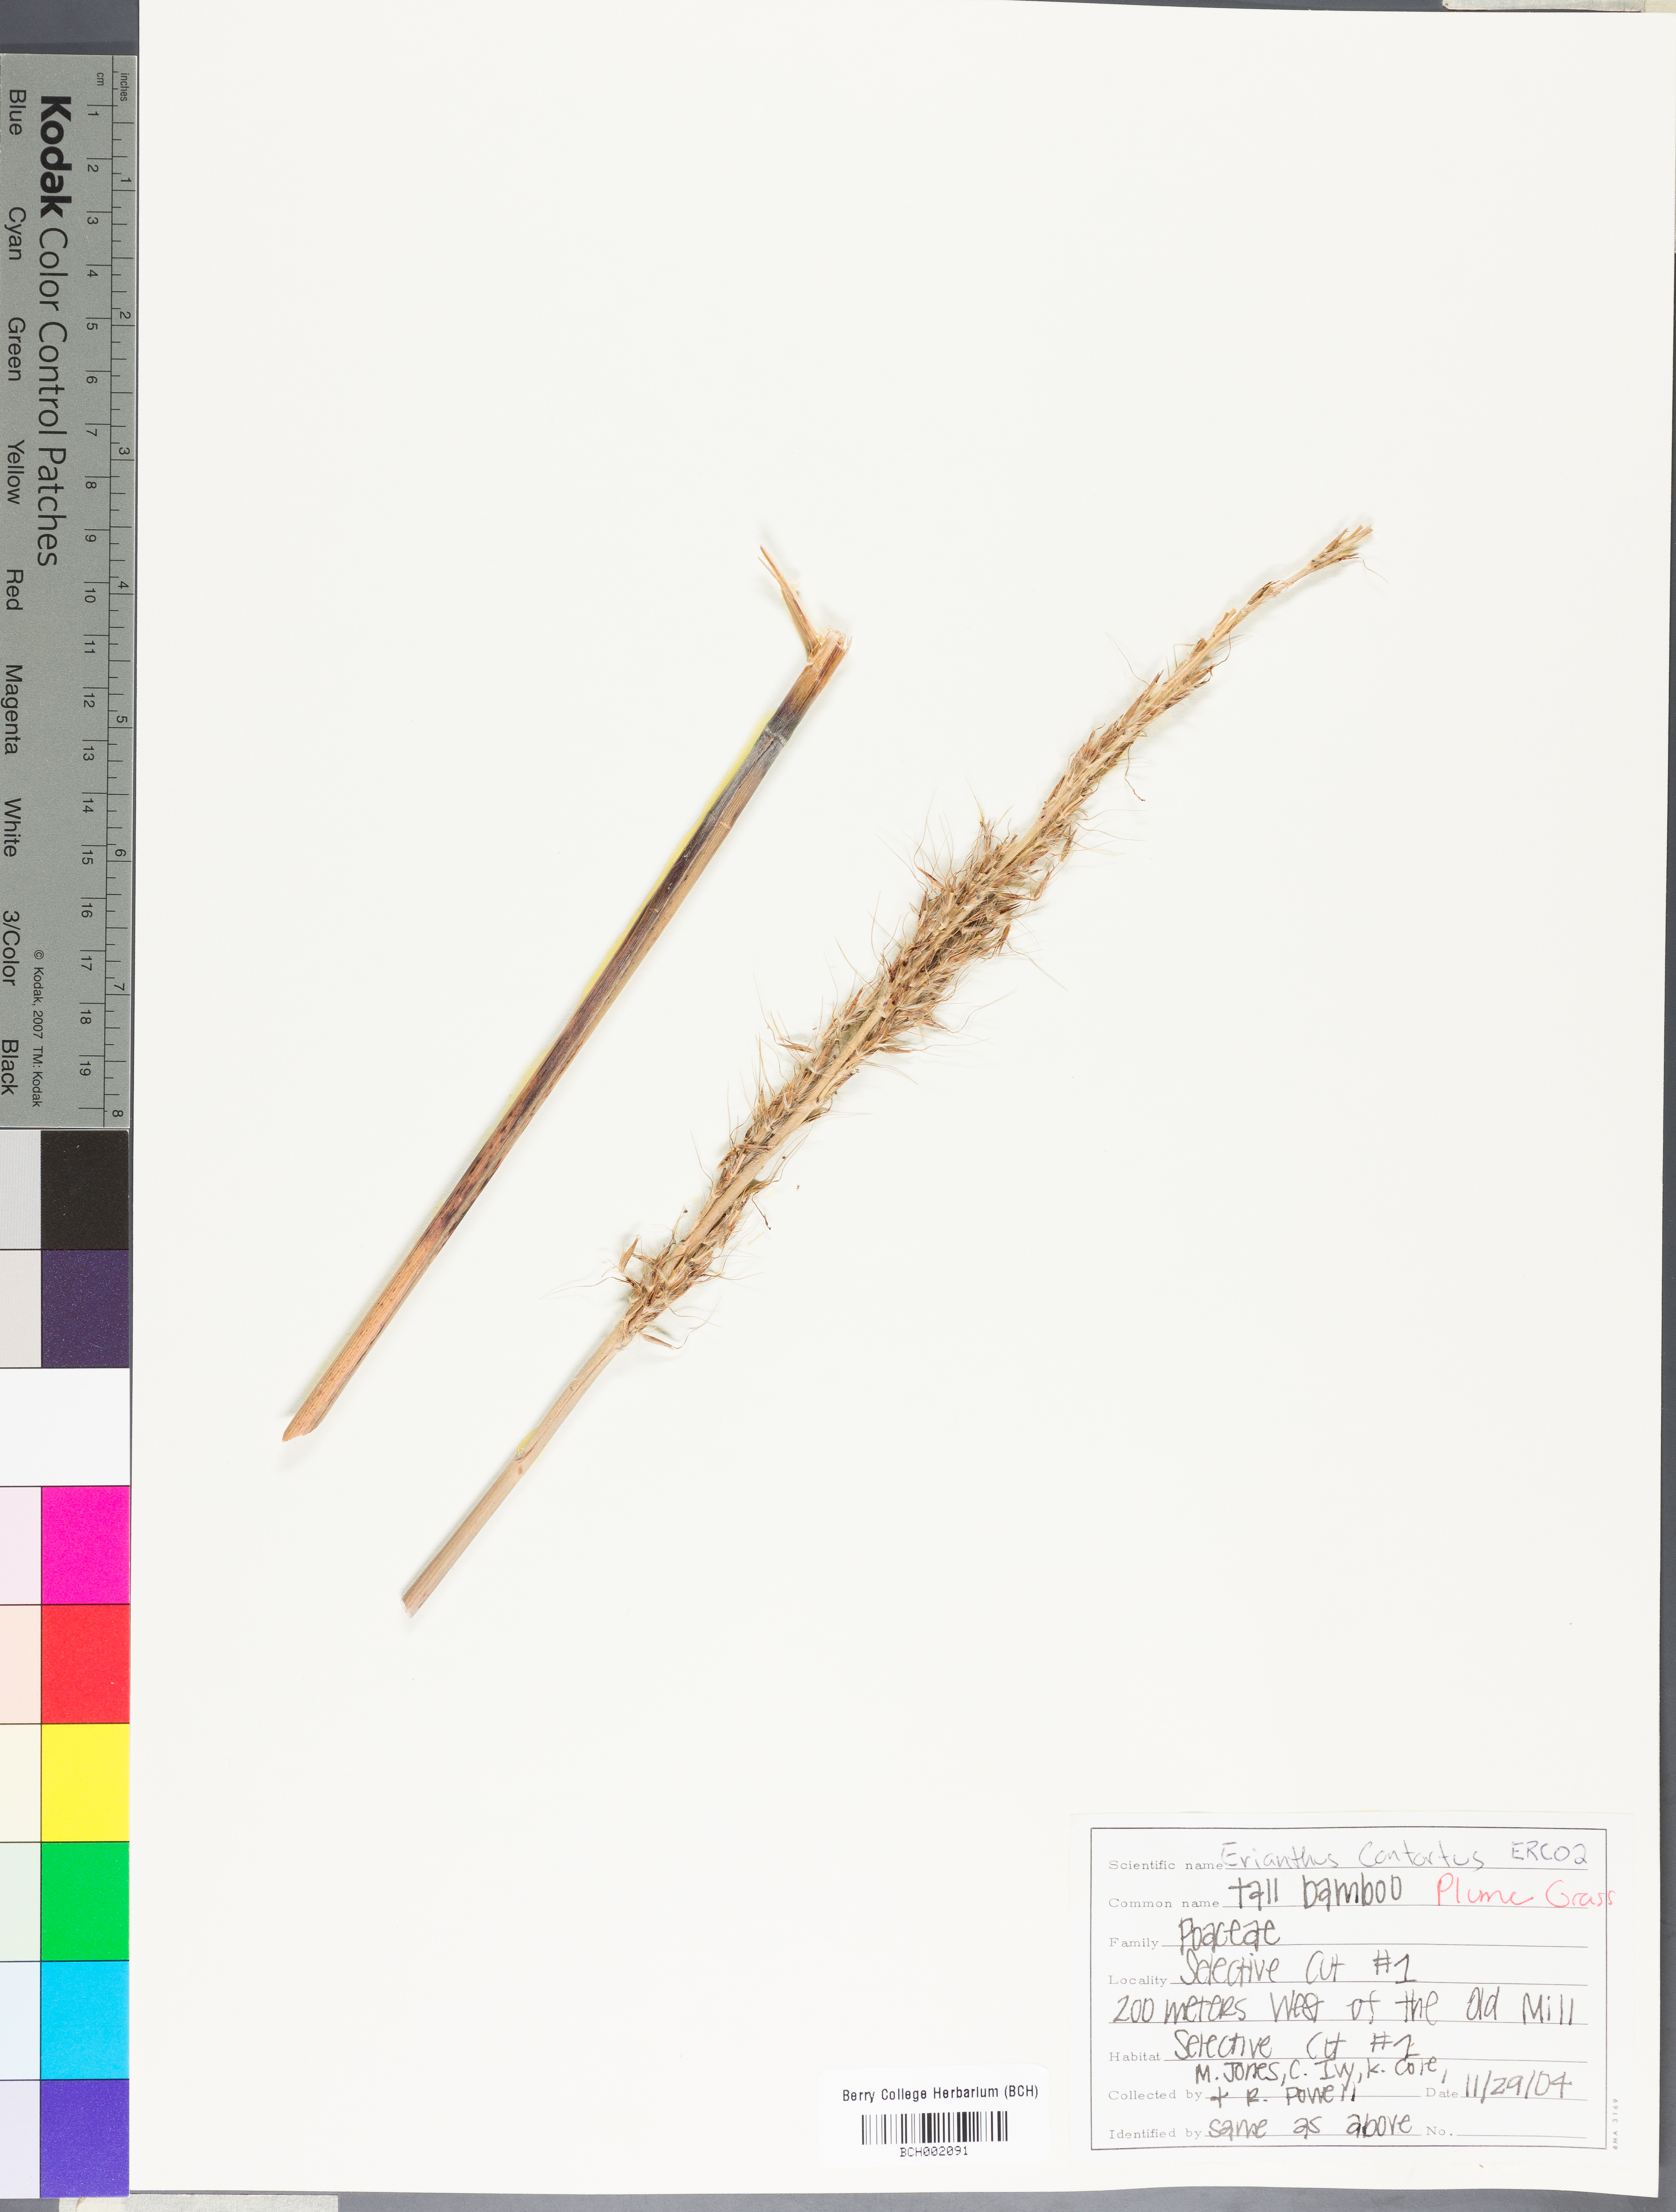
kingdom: Plantae
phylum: Tracheophyta
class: Liliopsida
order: Poales
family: Poaceae
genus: Erianthus
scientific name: Erianthus contortus
